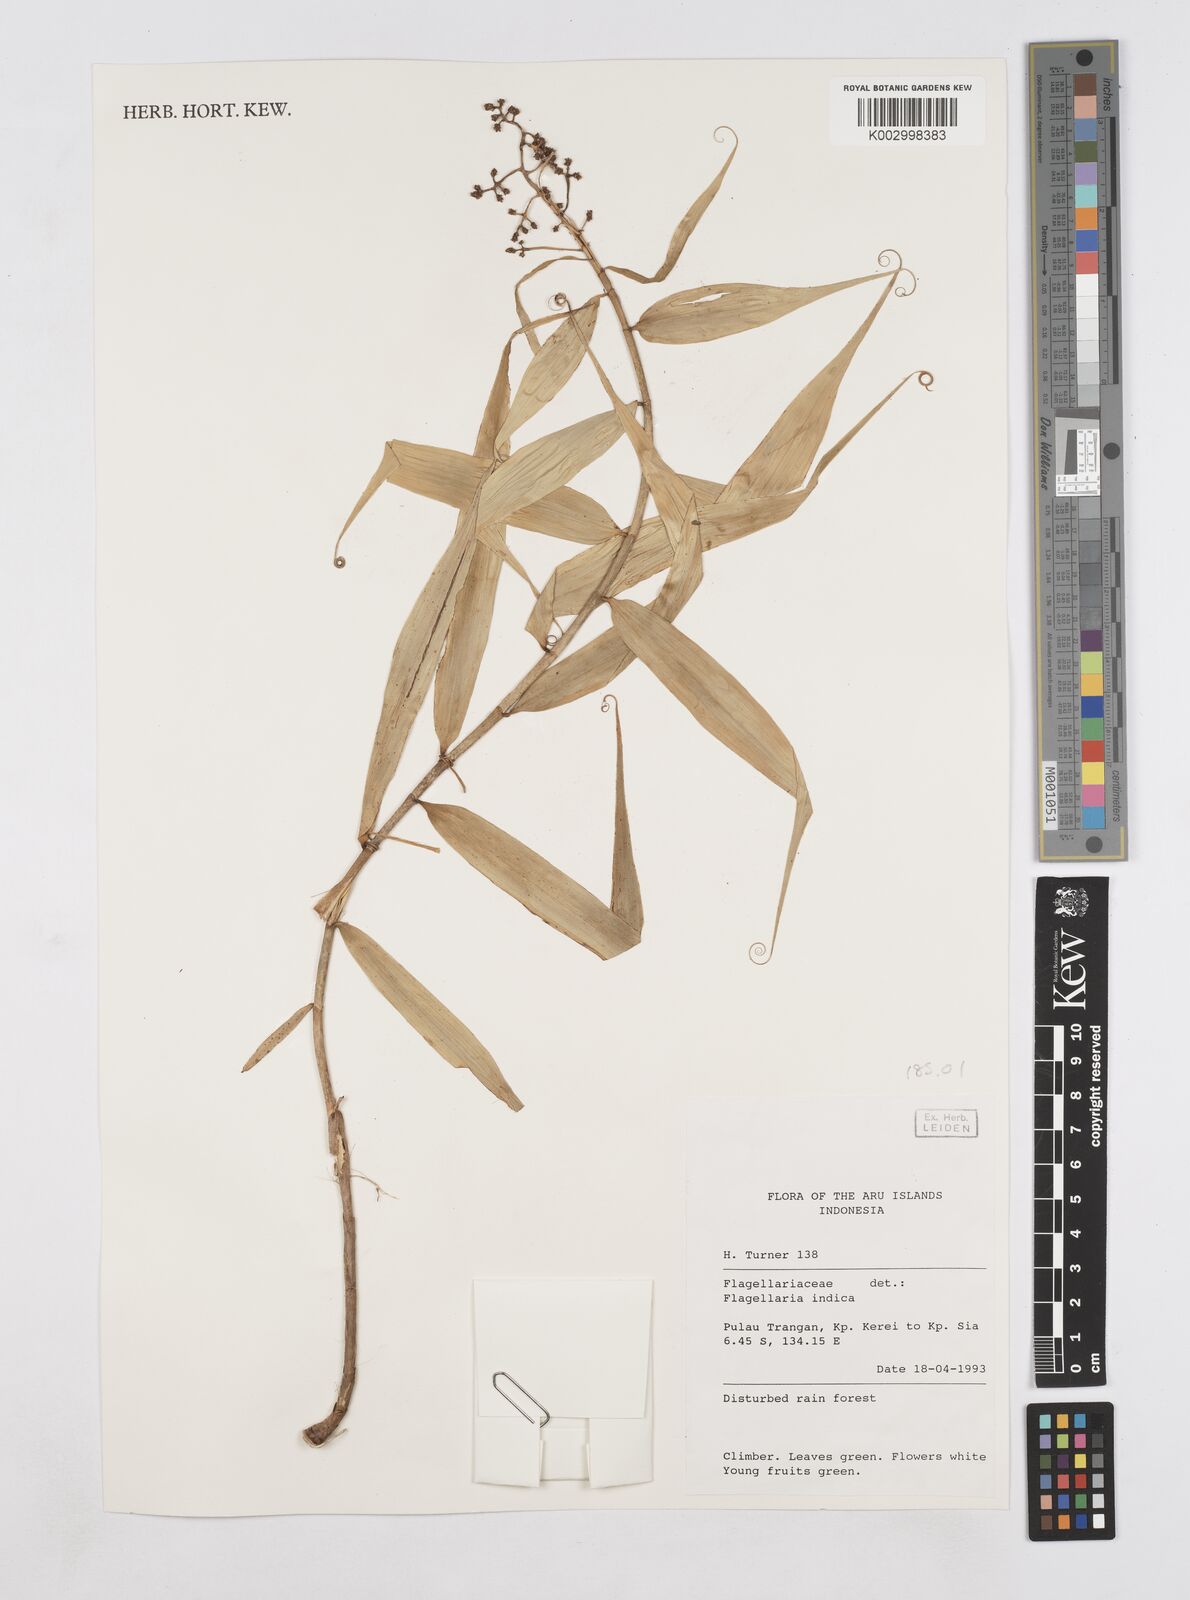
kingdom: Plantae
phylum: Tracheophyta
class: Liliopsida
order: Poales
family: Flagellariaceae
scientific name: Flagellariaceae
